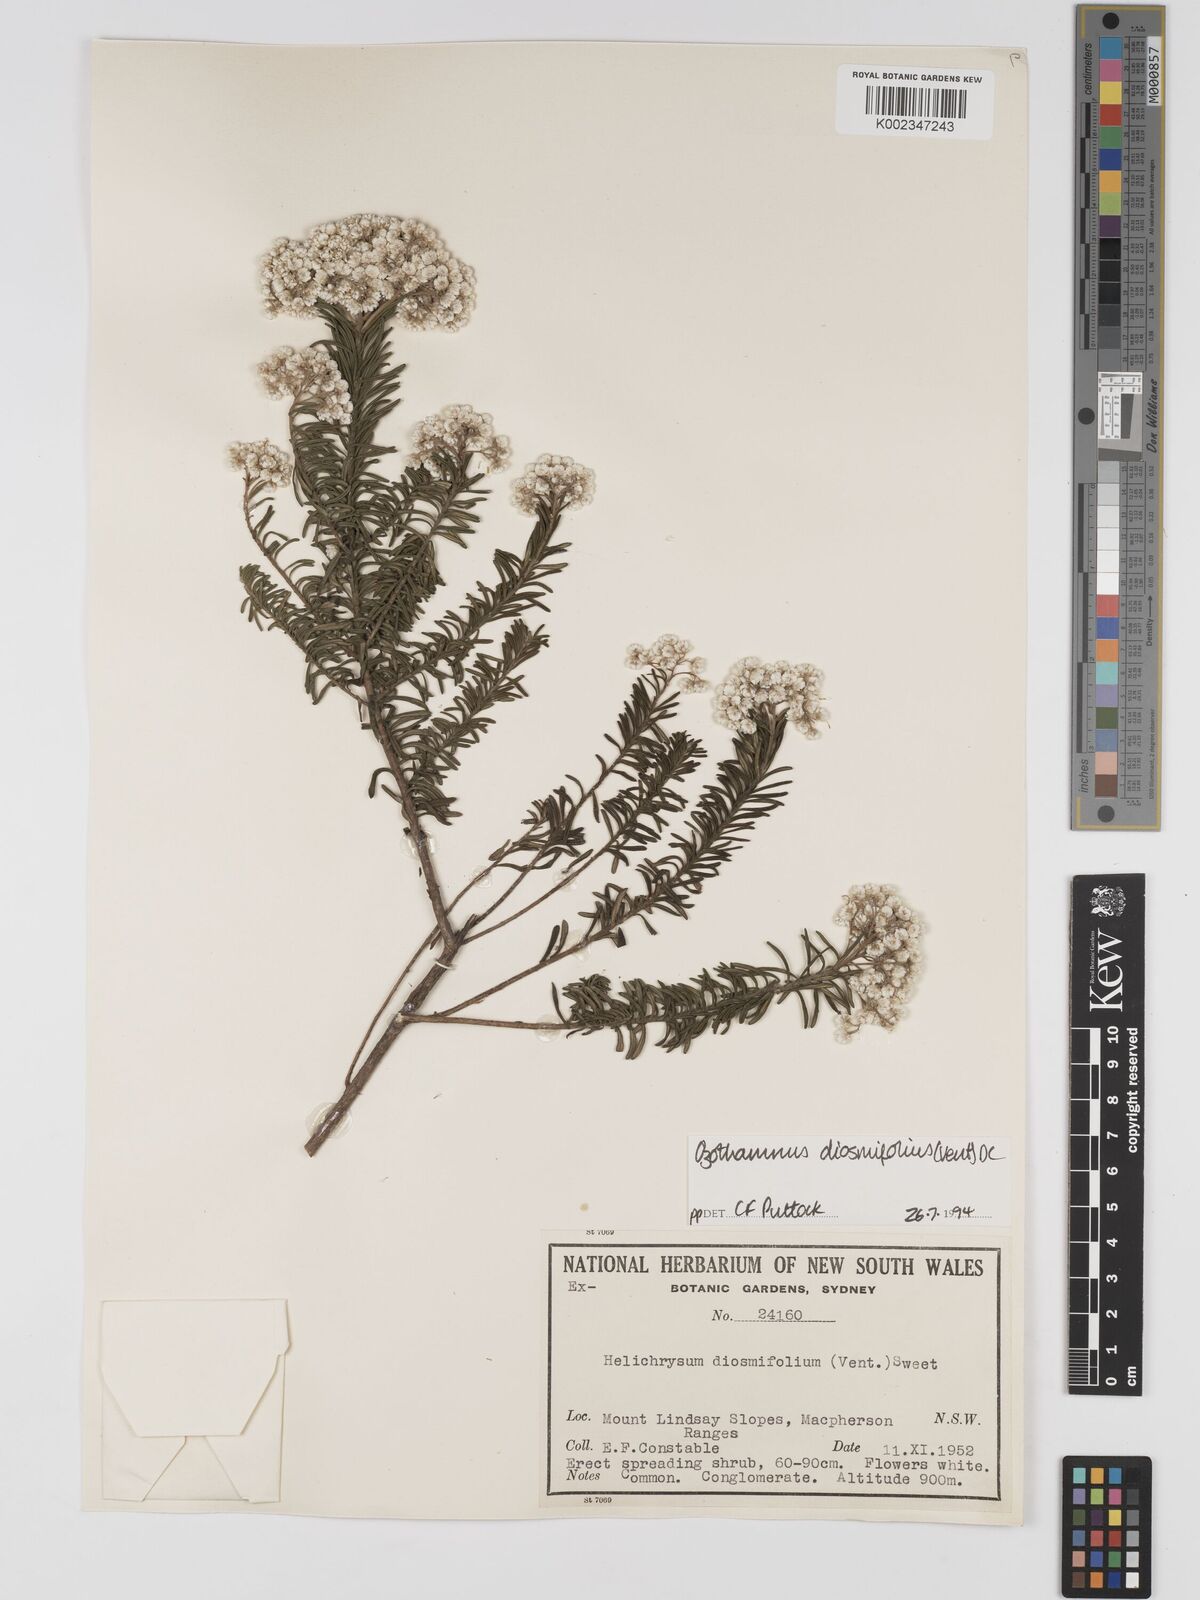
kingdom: Plantae
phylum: Tracheophyta
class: Magnoliopsida
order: Asterales
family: Asteraceae
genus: Ozothamnus
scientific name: Ozothamnus diosmifolius
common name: White-dogwood
